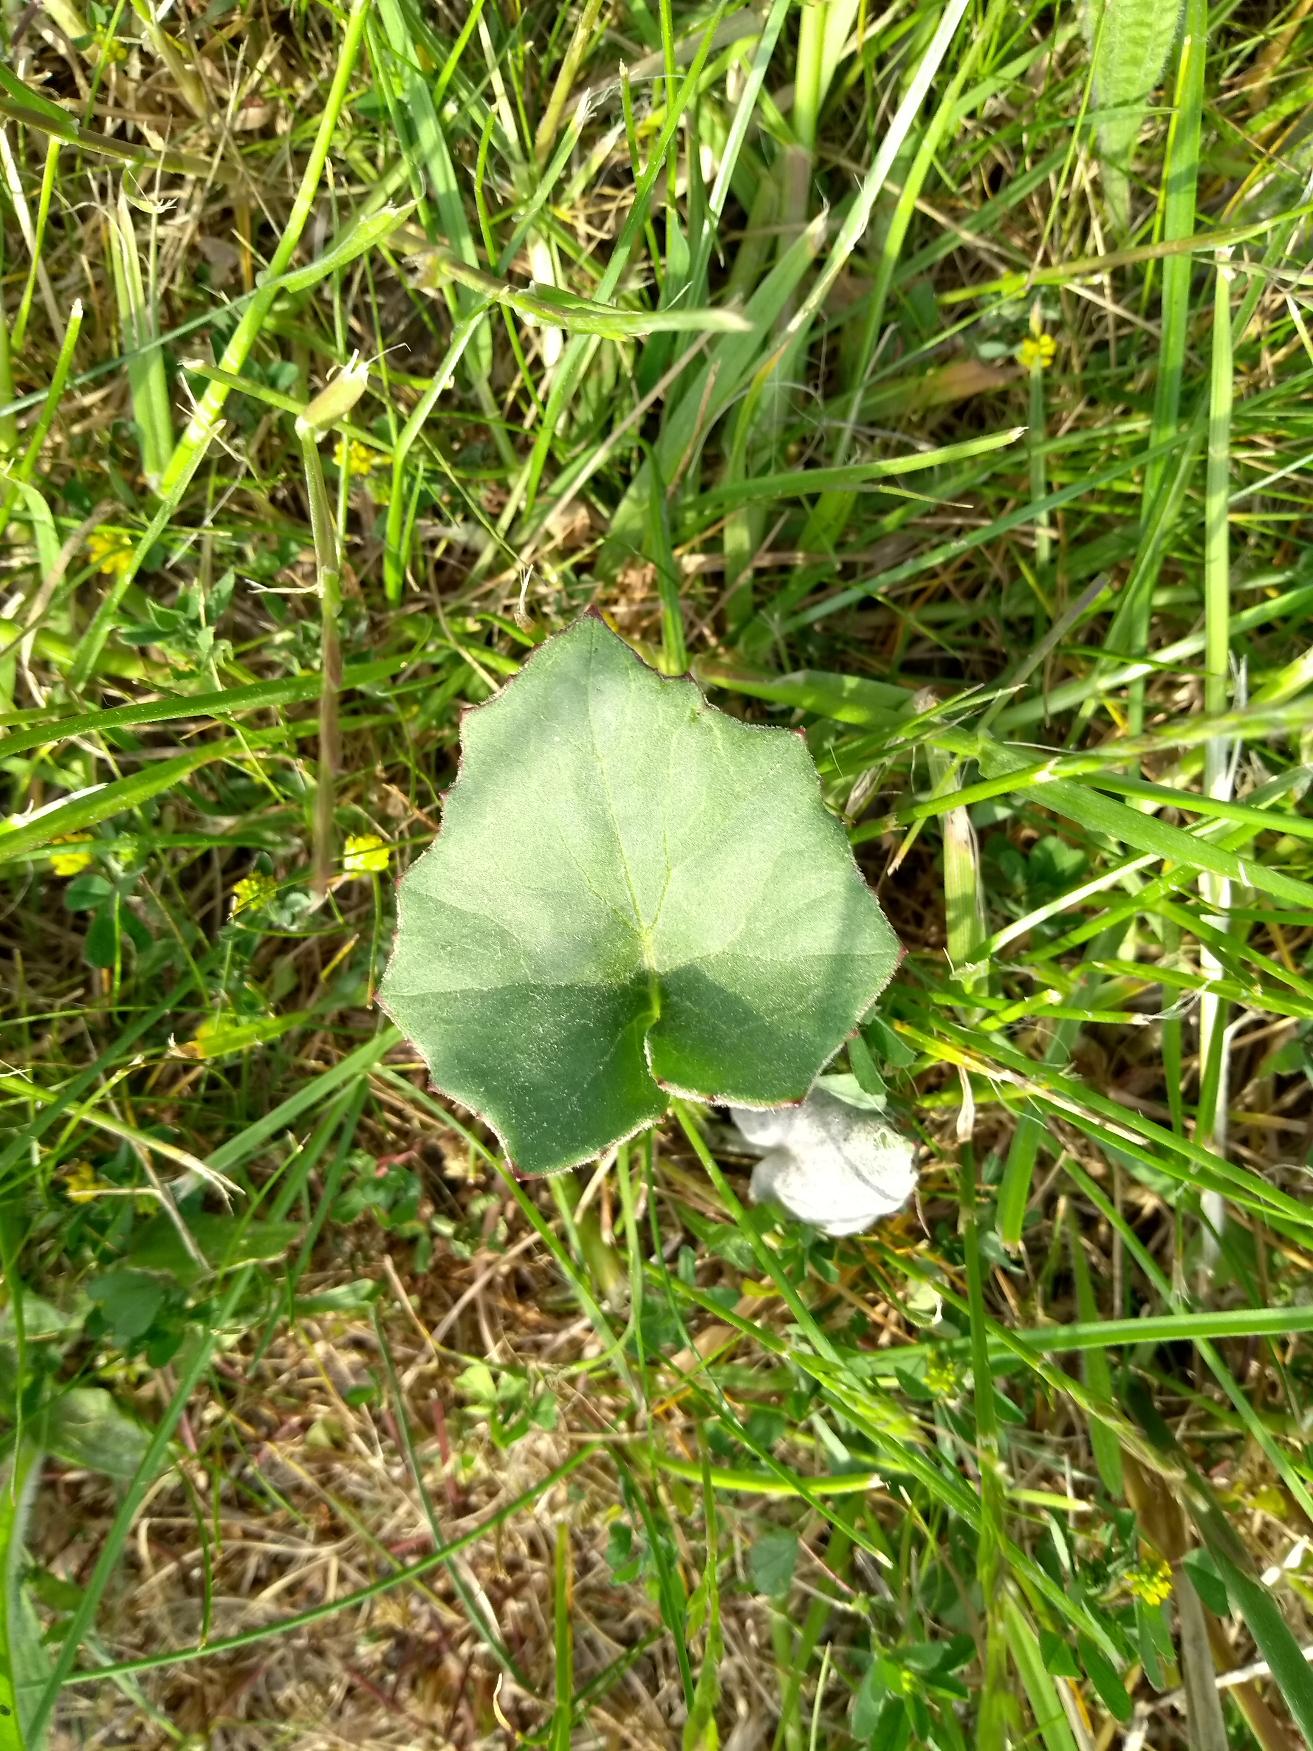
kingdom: Plantae
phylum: Tracheophyta
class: Magnoliopsida
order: Asterales
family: Asteraceae
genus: Tussilago
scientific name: Tussilago farfara
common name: Følfod
